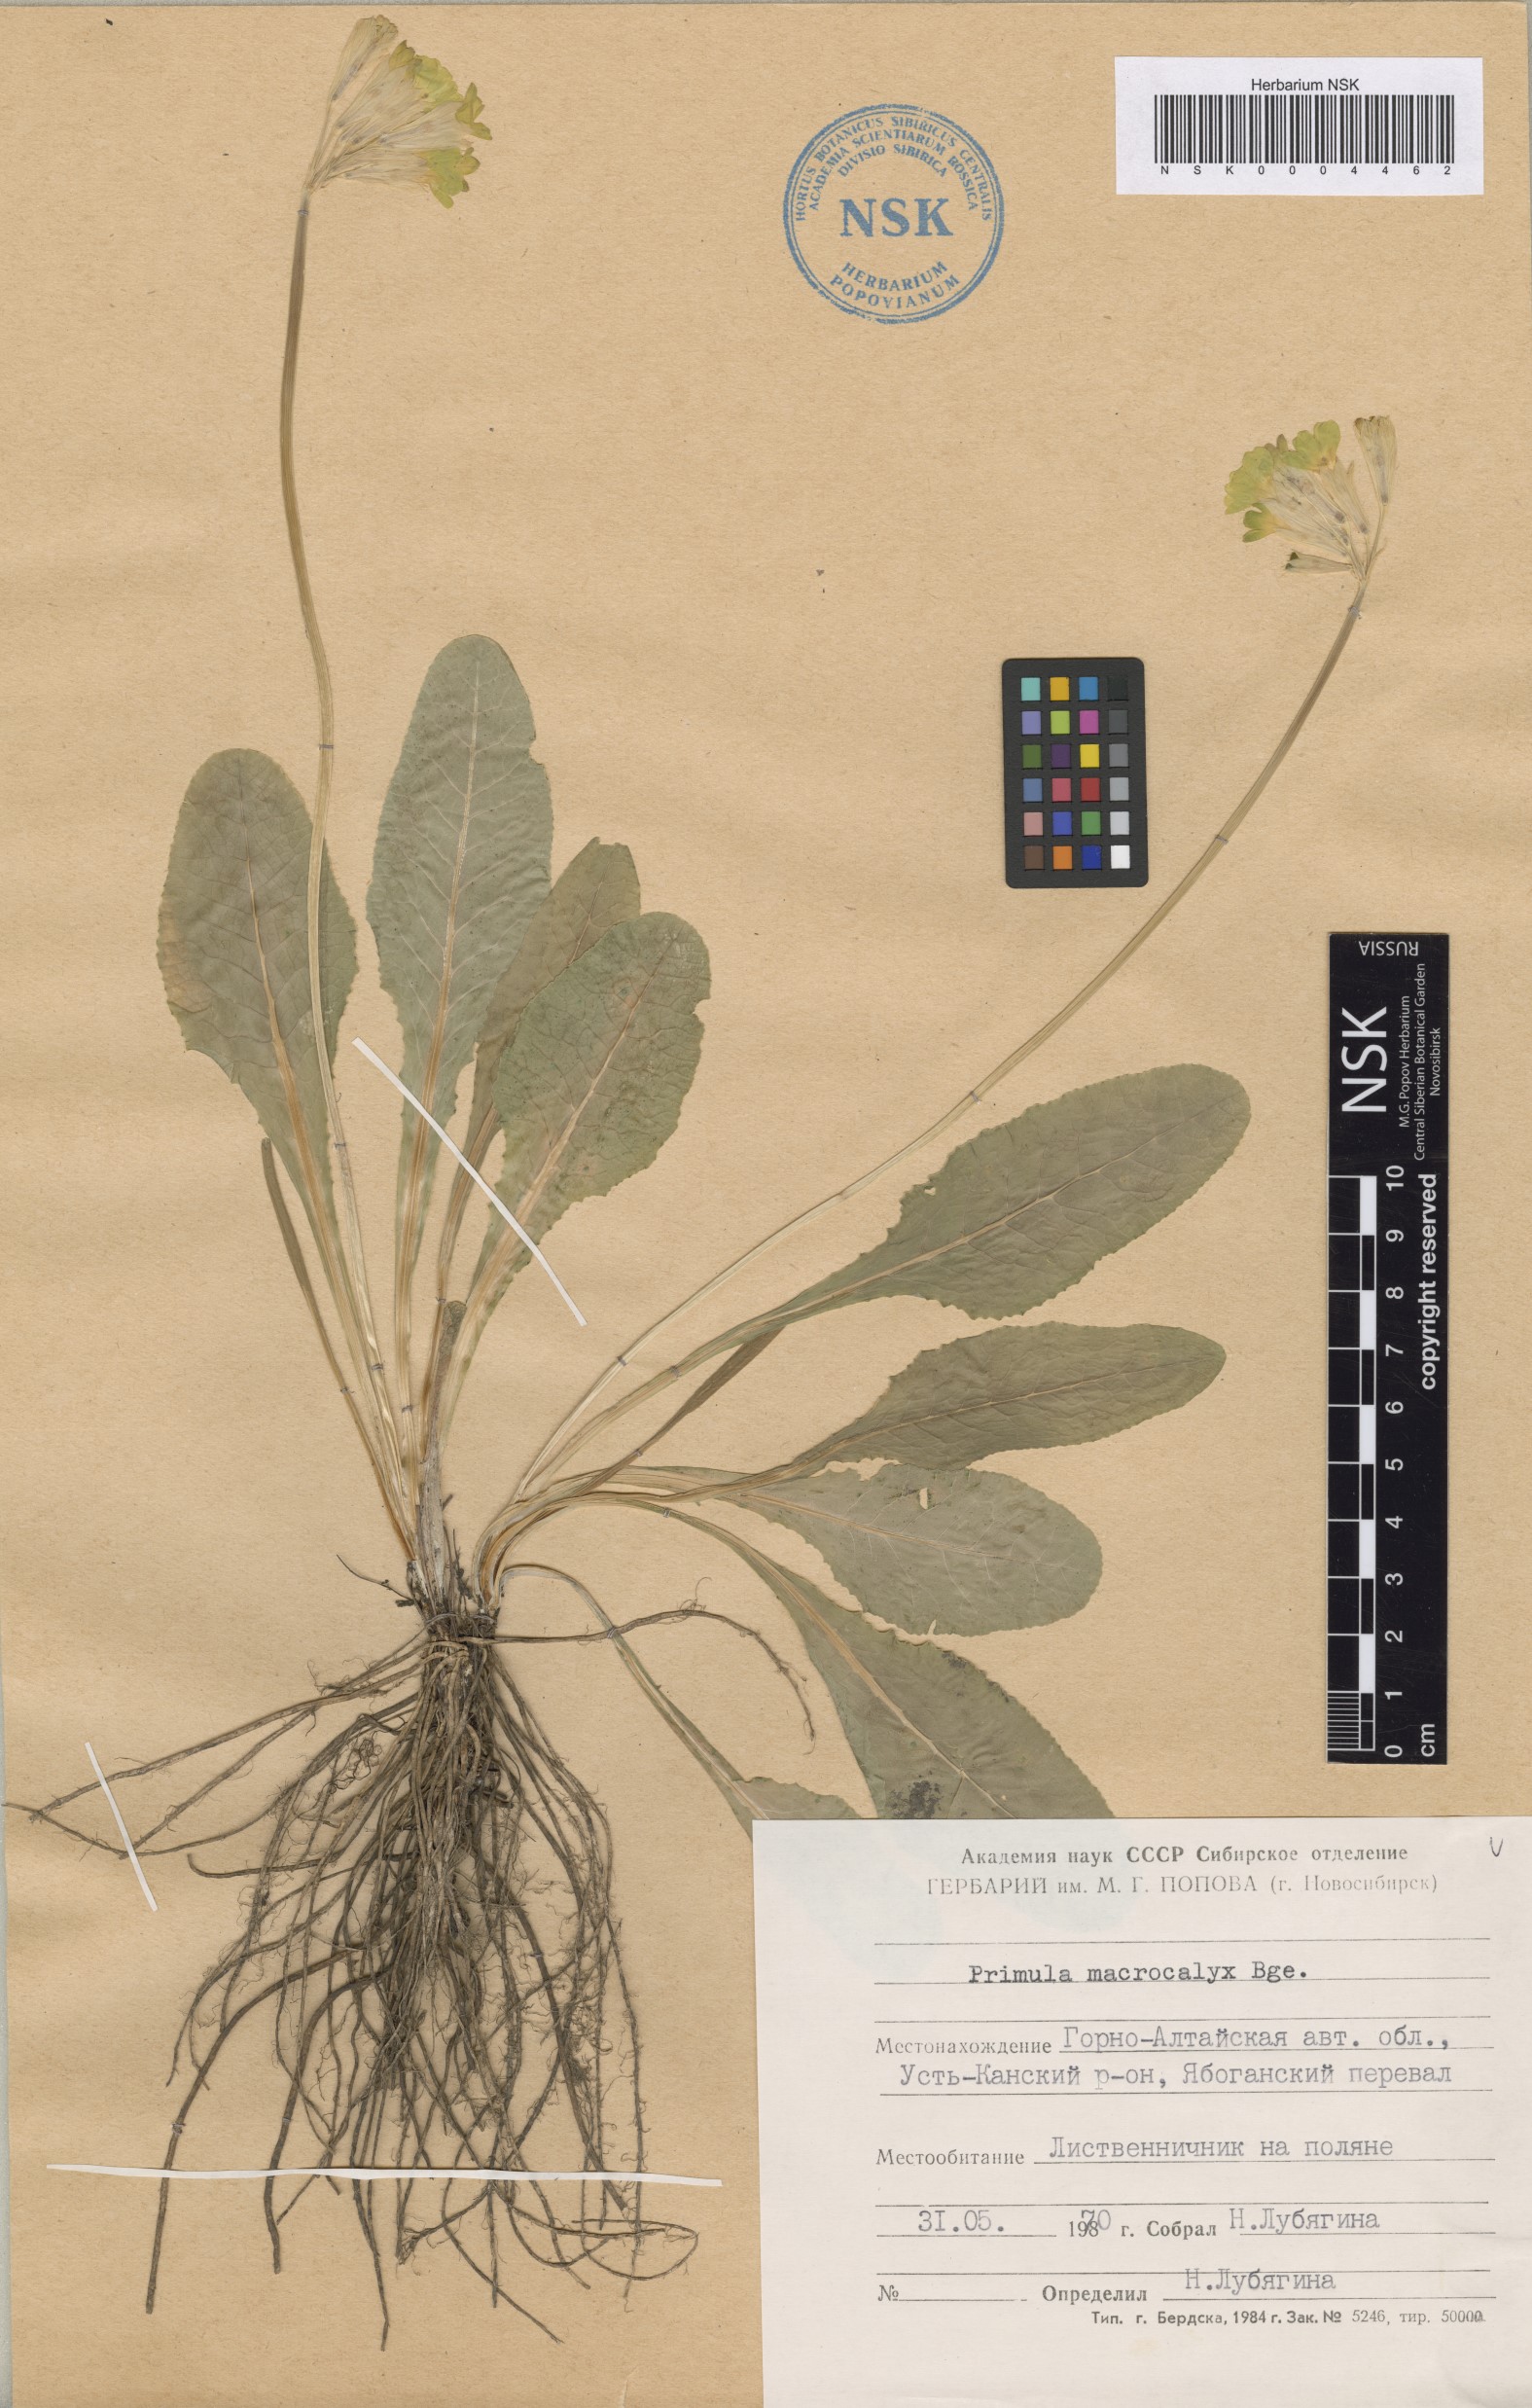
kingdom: Plantae
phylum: Tracheophyta
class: Magnoliopsida
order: Ericales
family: Primulaceae
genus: Primula
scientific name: Primula veris
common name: Cowslip
